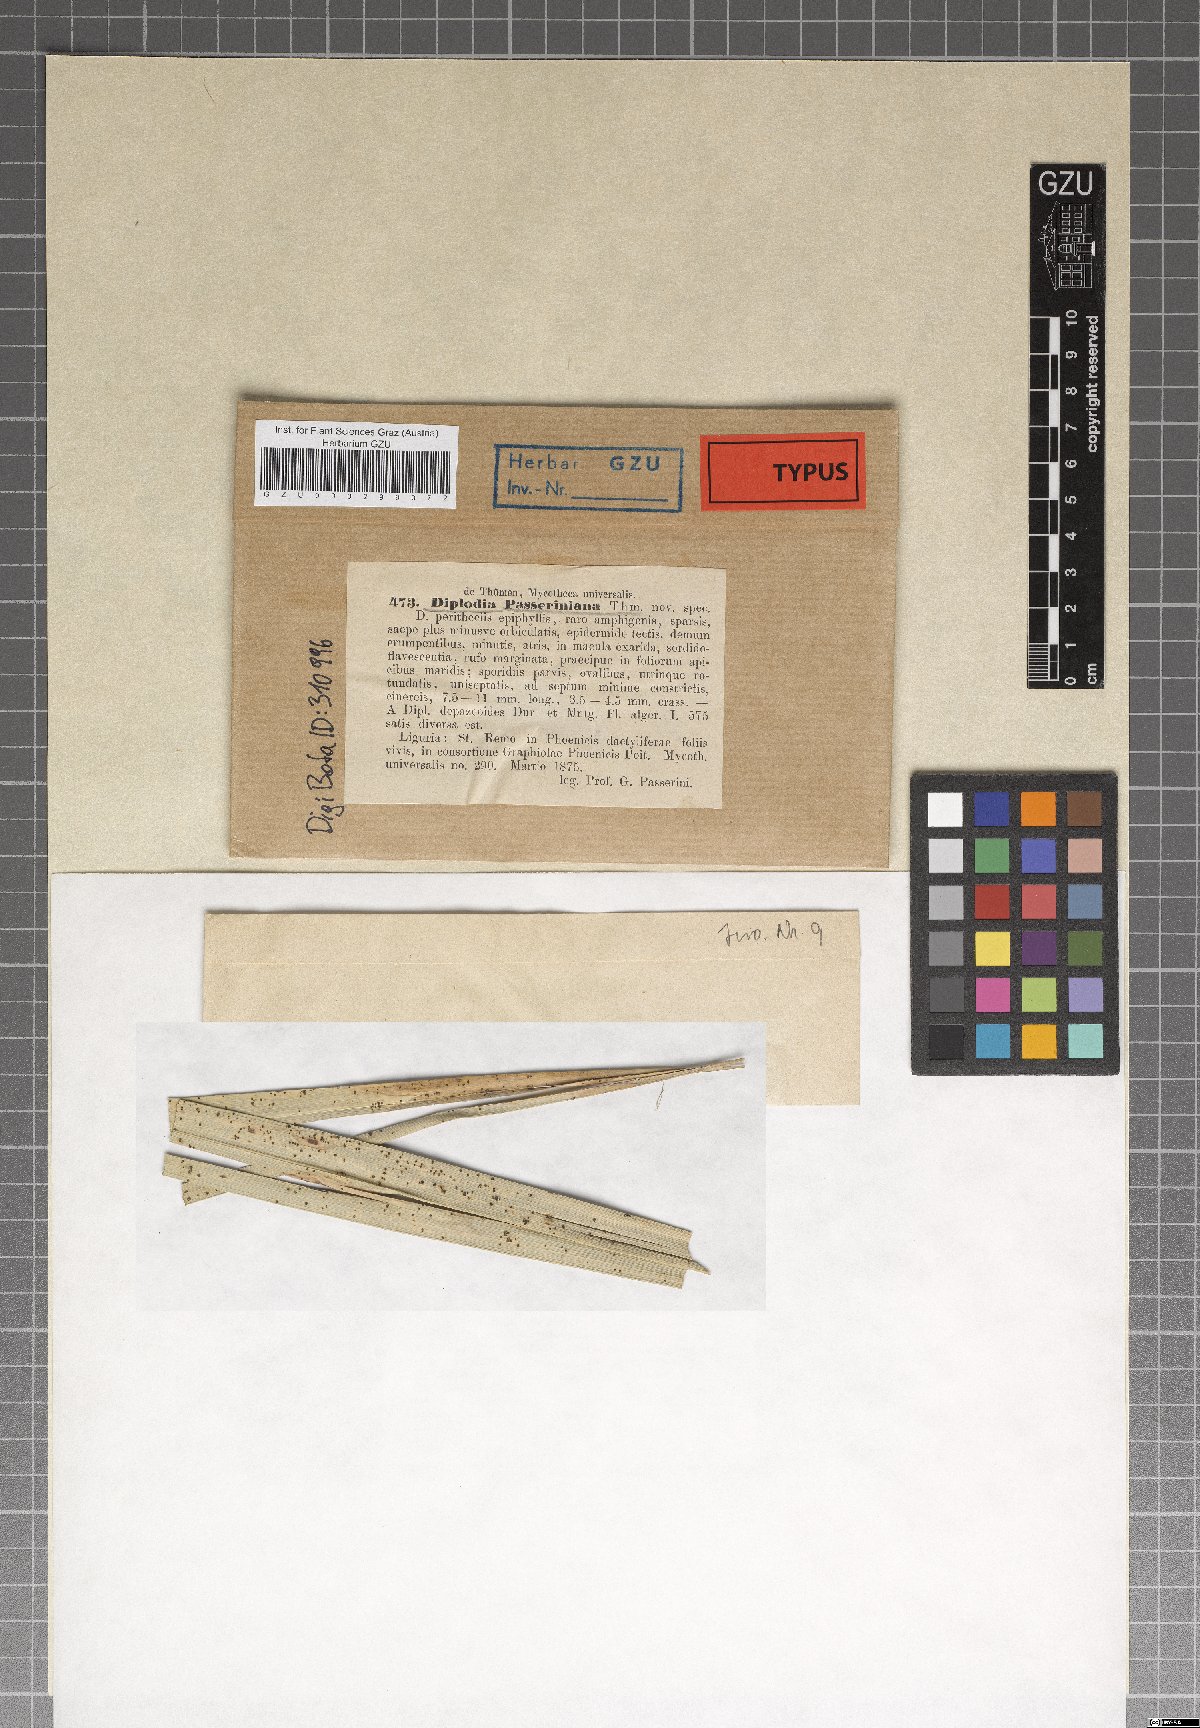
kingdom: Fungi
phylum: Ascomycota
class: Dothideomycetes
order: Botryosphaeriales
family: Botryosphaeriaceae
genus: Microdiplodia
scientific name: Microdiplodia passeriniana
